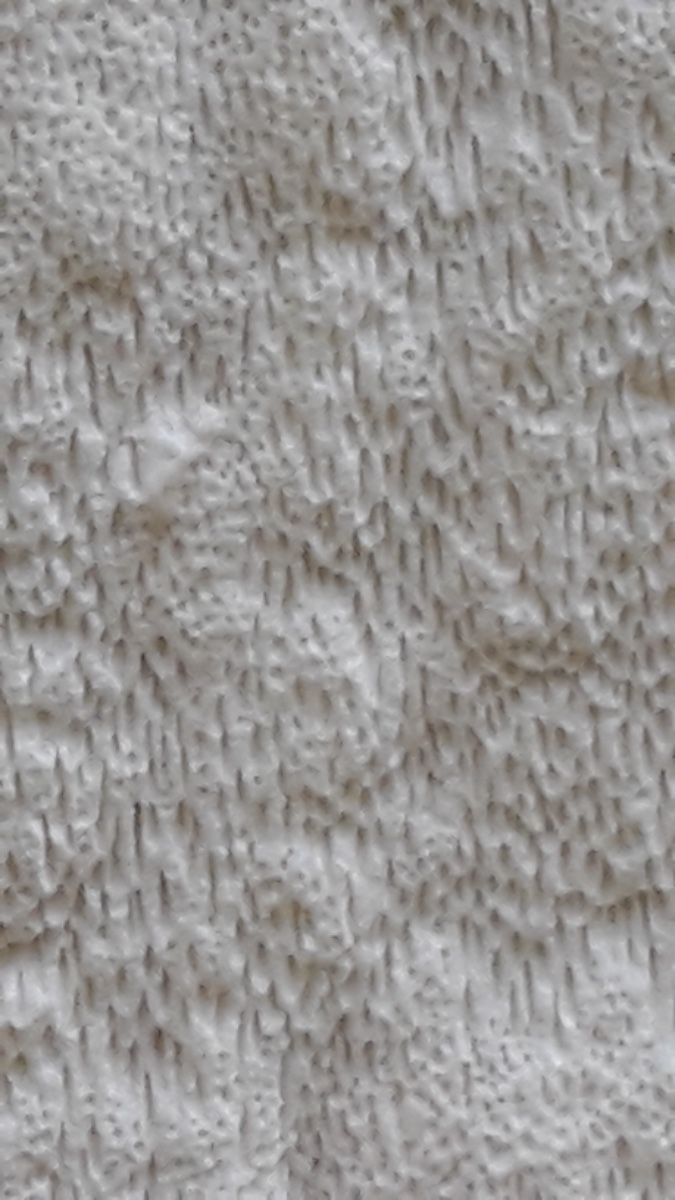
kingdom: Fungi
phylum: Basidiomycota
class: Agaricomycetes
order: Polyporales
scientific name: Polyporales
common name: poresvampordenen
